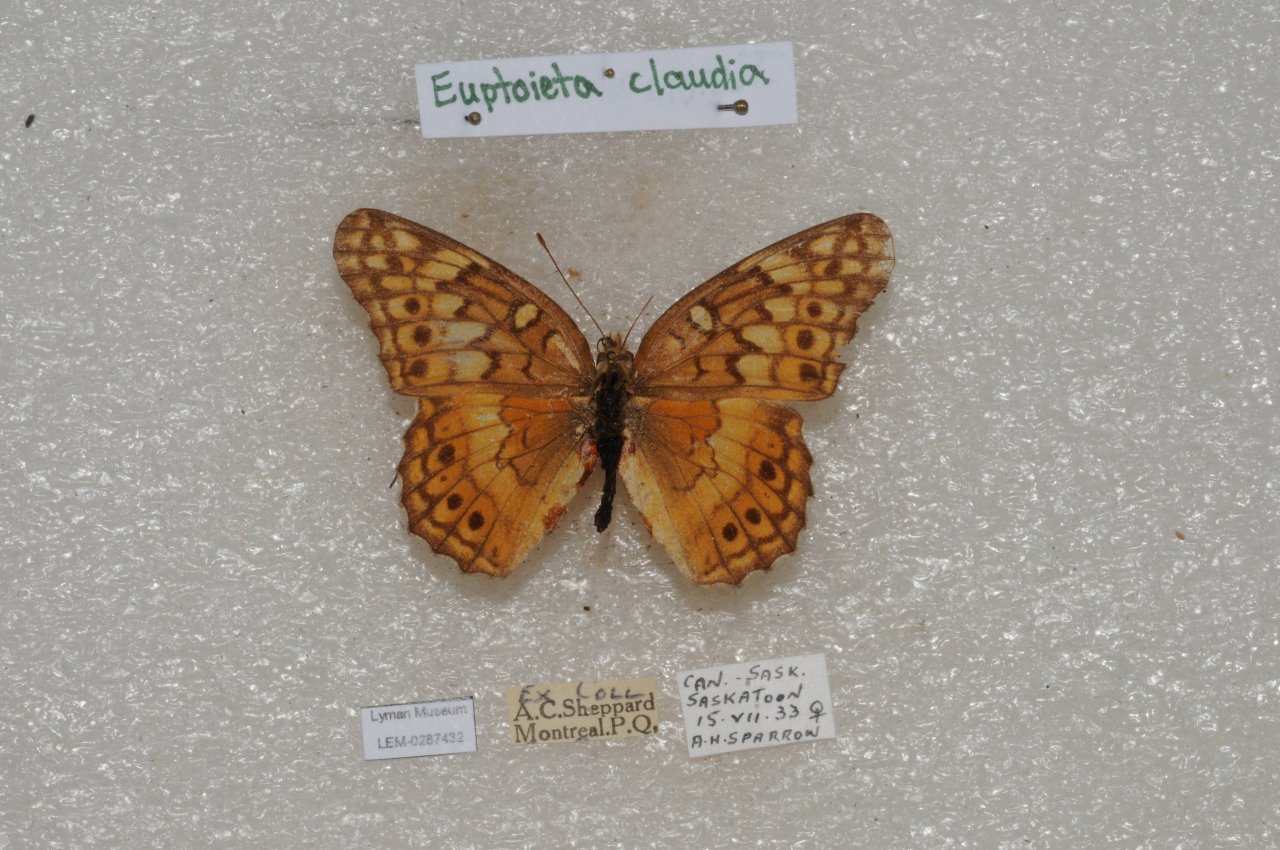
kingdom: Animalia
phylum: Arthropoda
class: Insecta
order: Lepidoptera
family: Nymphalidae
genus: Euptoieta
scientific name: Euptoieta claudia
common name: Variegated Fritillary
